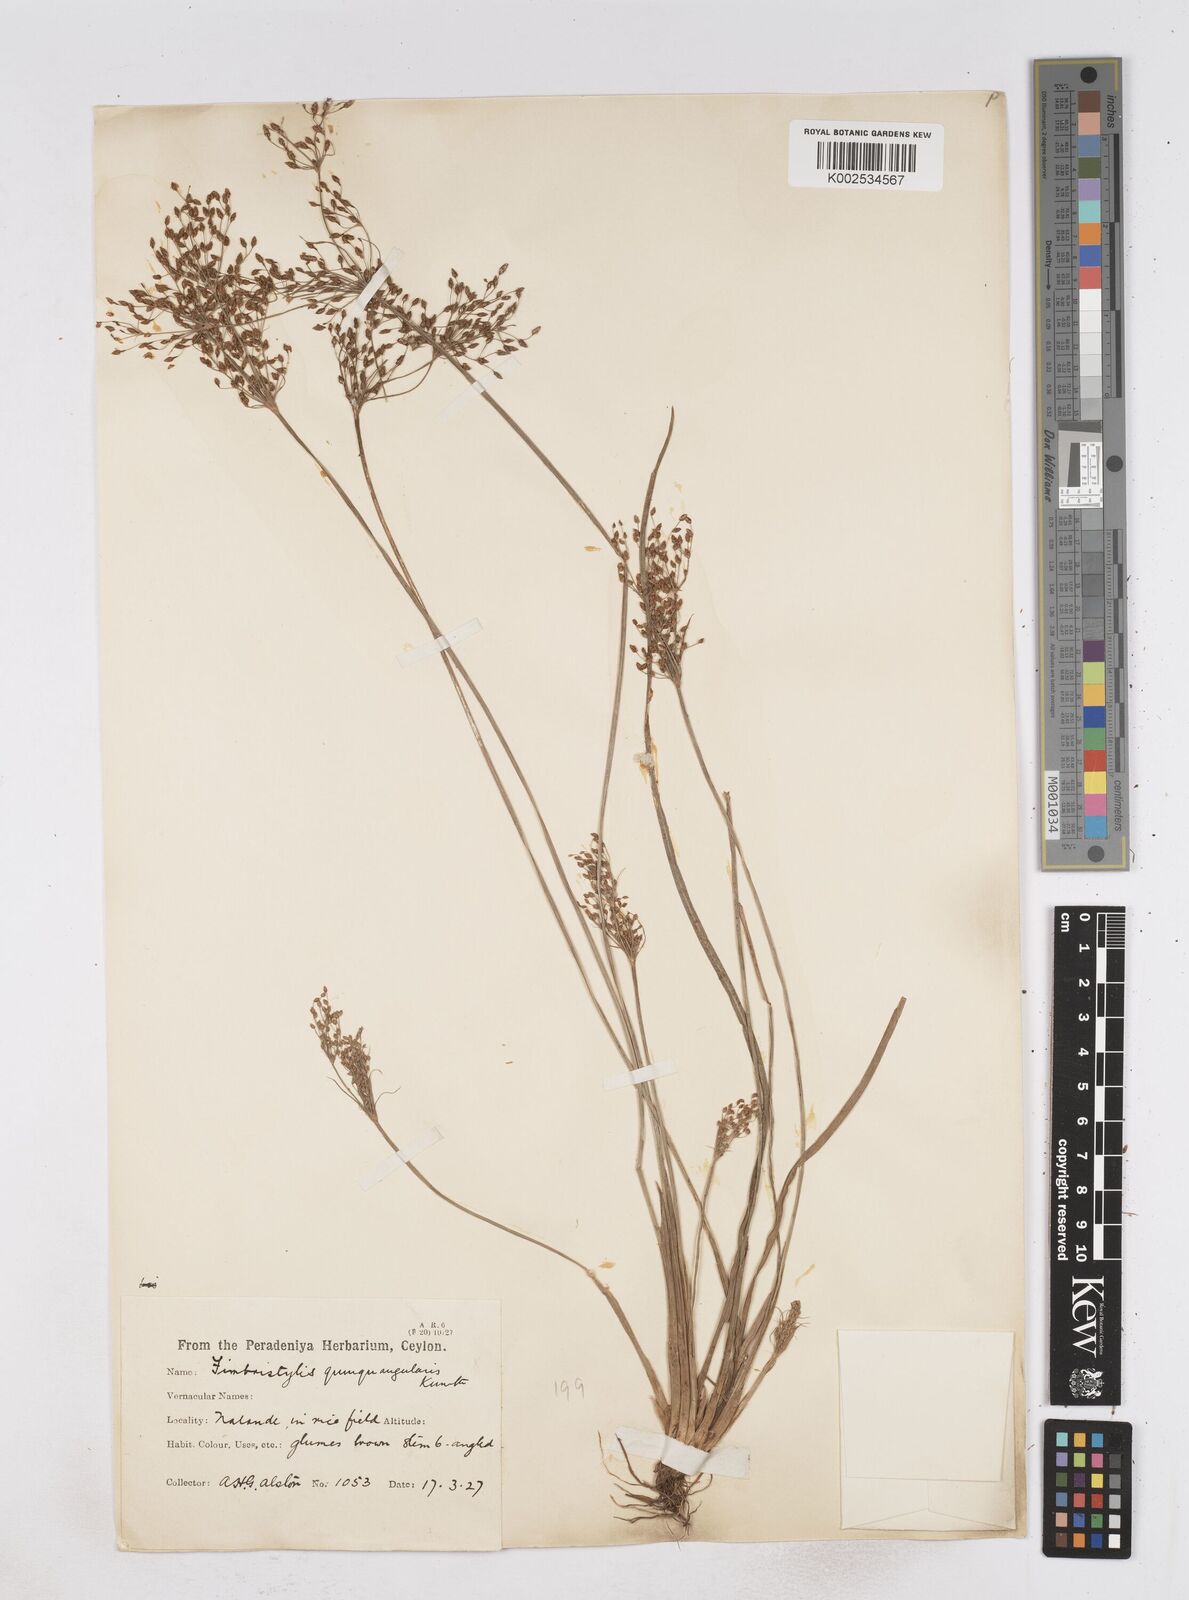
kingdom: Plantae
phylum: Tracheophyta
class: Liliopsida
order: Poales
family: Cyperaceae
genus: Fimbristylis
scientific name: Fimbristylis quinquangularis
